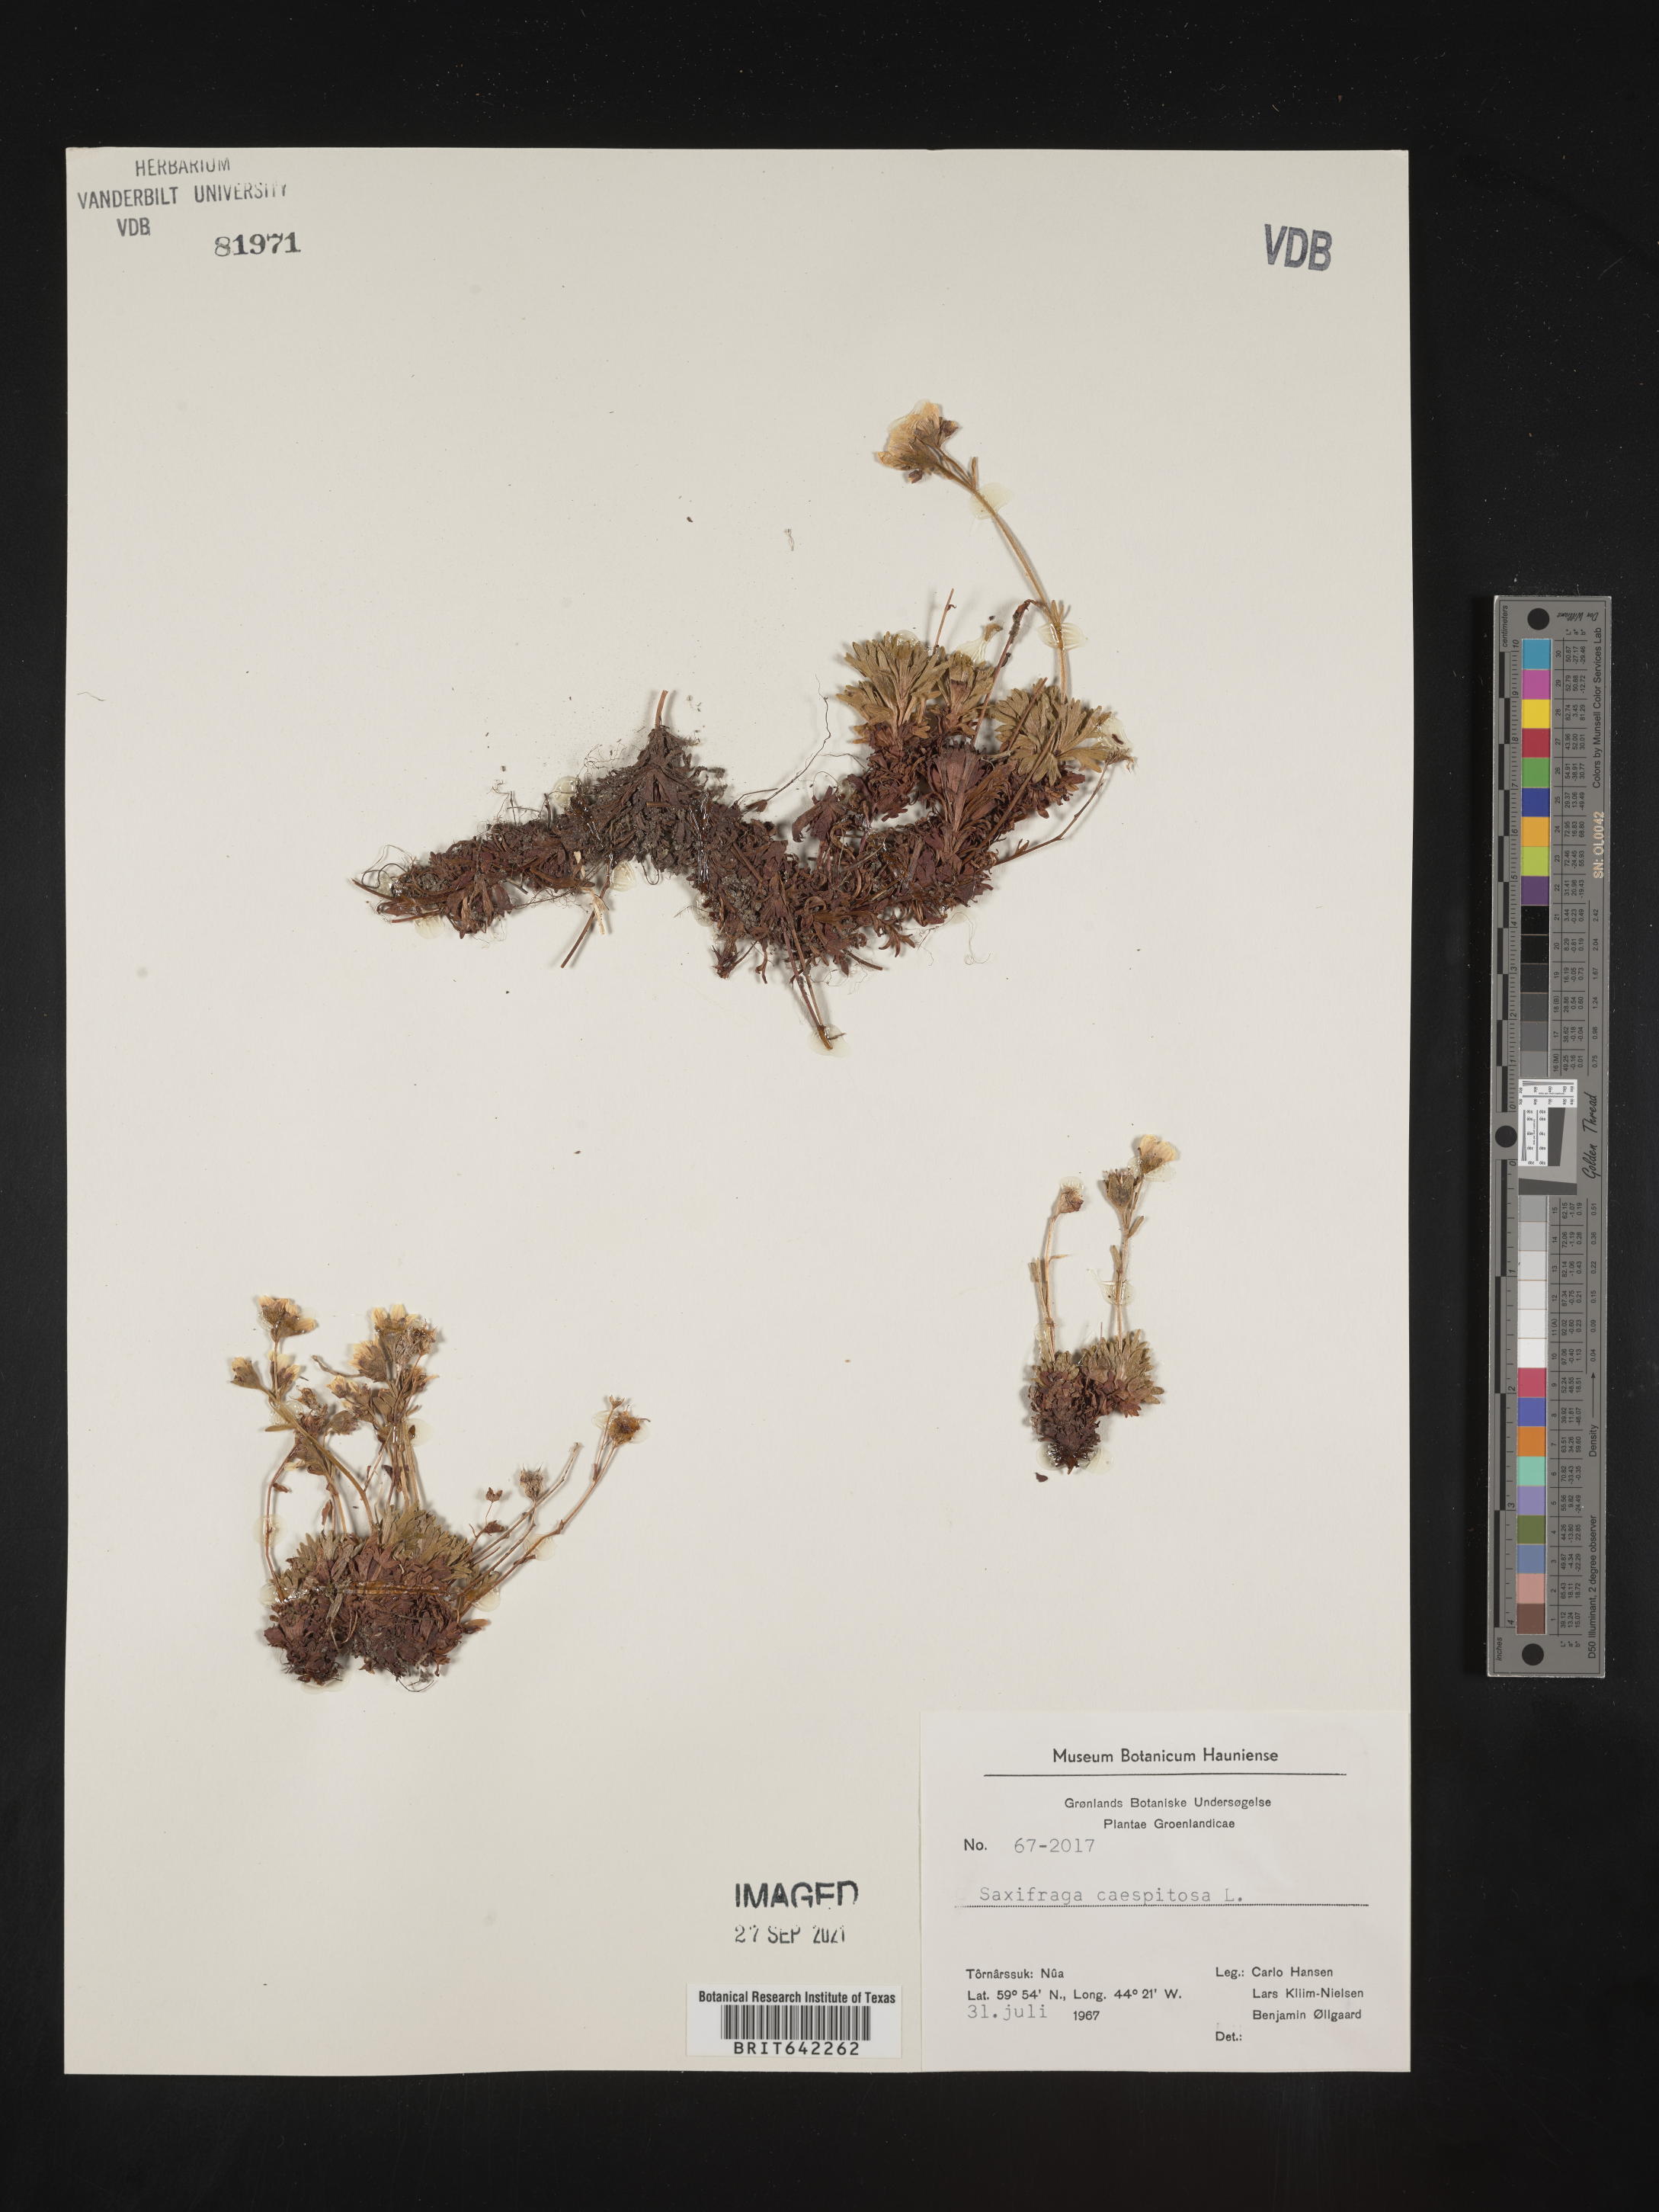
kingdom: Plantae
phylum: Tracheophyta
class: Magnoliopsida
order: Saxifragales
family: Saxifragaceae
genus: Saxifraga
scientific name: Saxifraga
